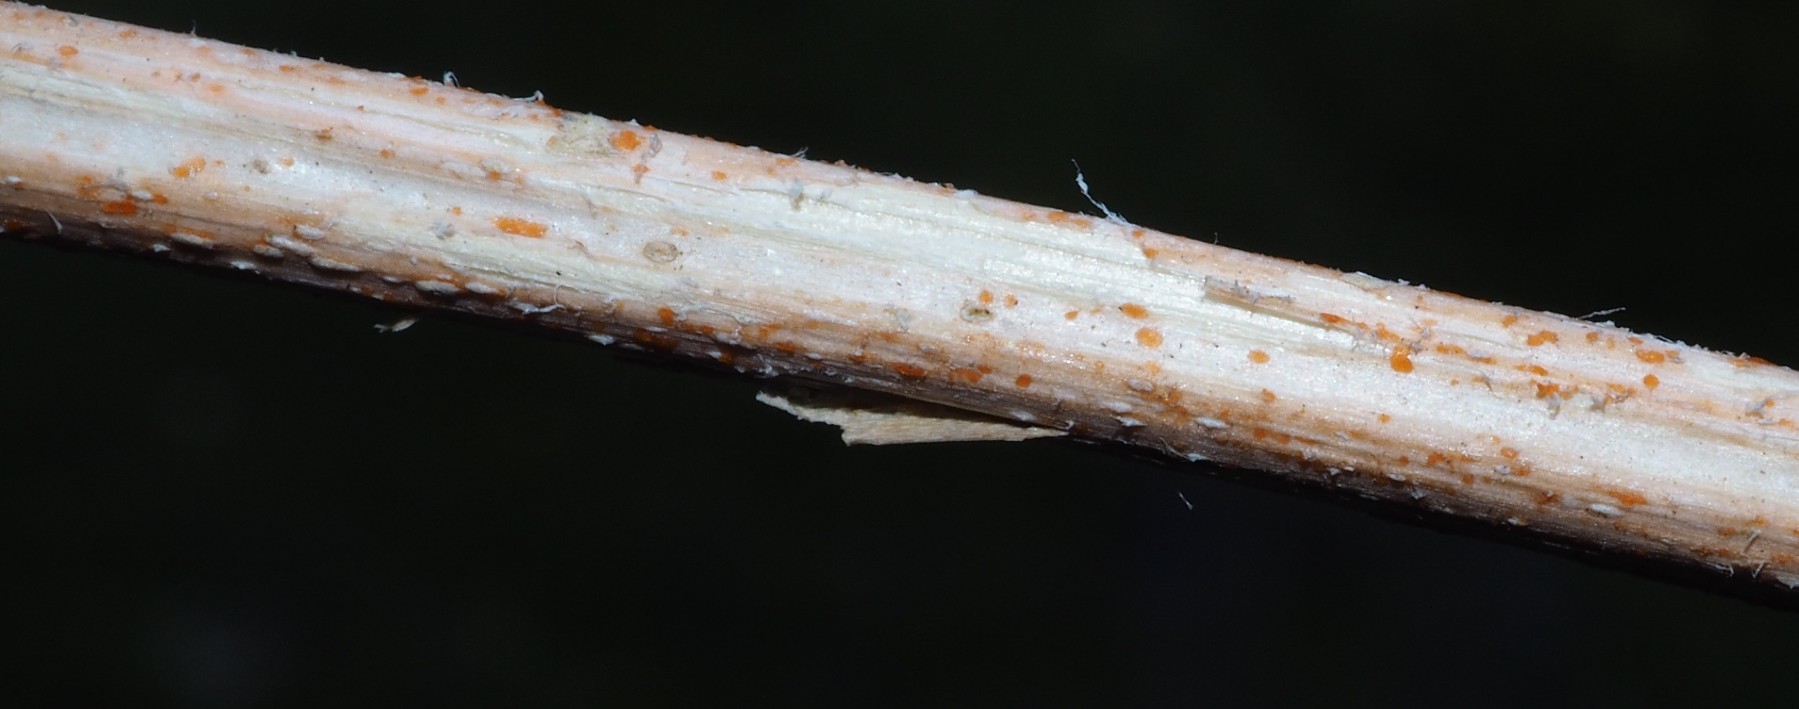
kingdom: Fungi
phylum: Ascomycota
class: Leotiomycetes
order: Helotiales
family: Calloriaceae
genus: Calloria
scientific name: Calloria urticae
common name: nælde-orangeskive
